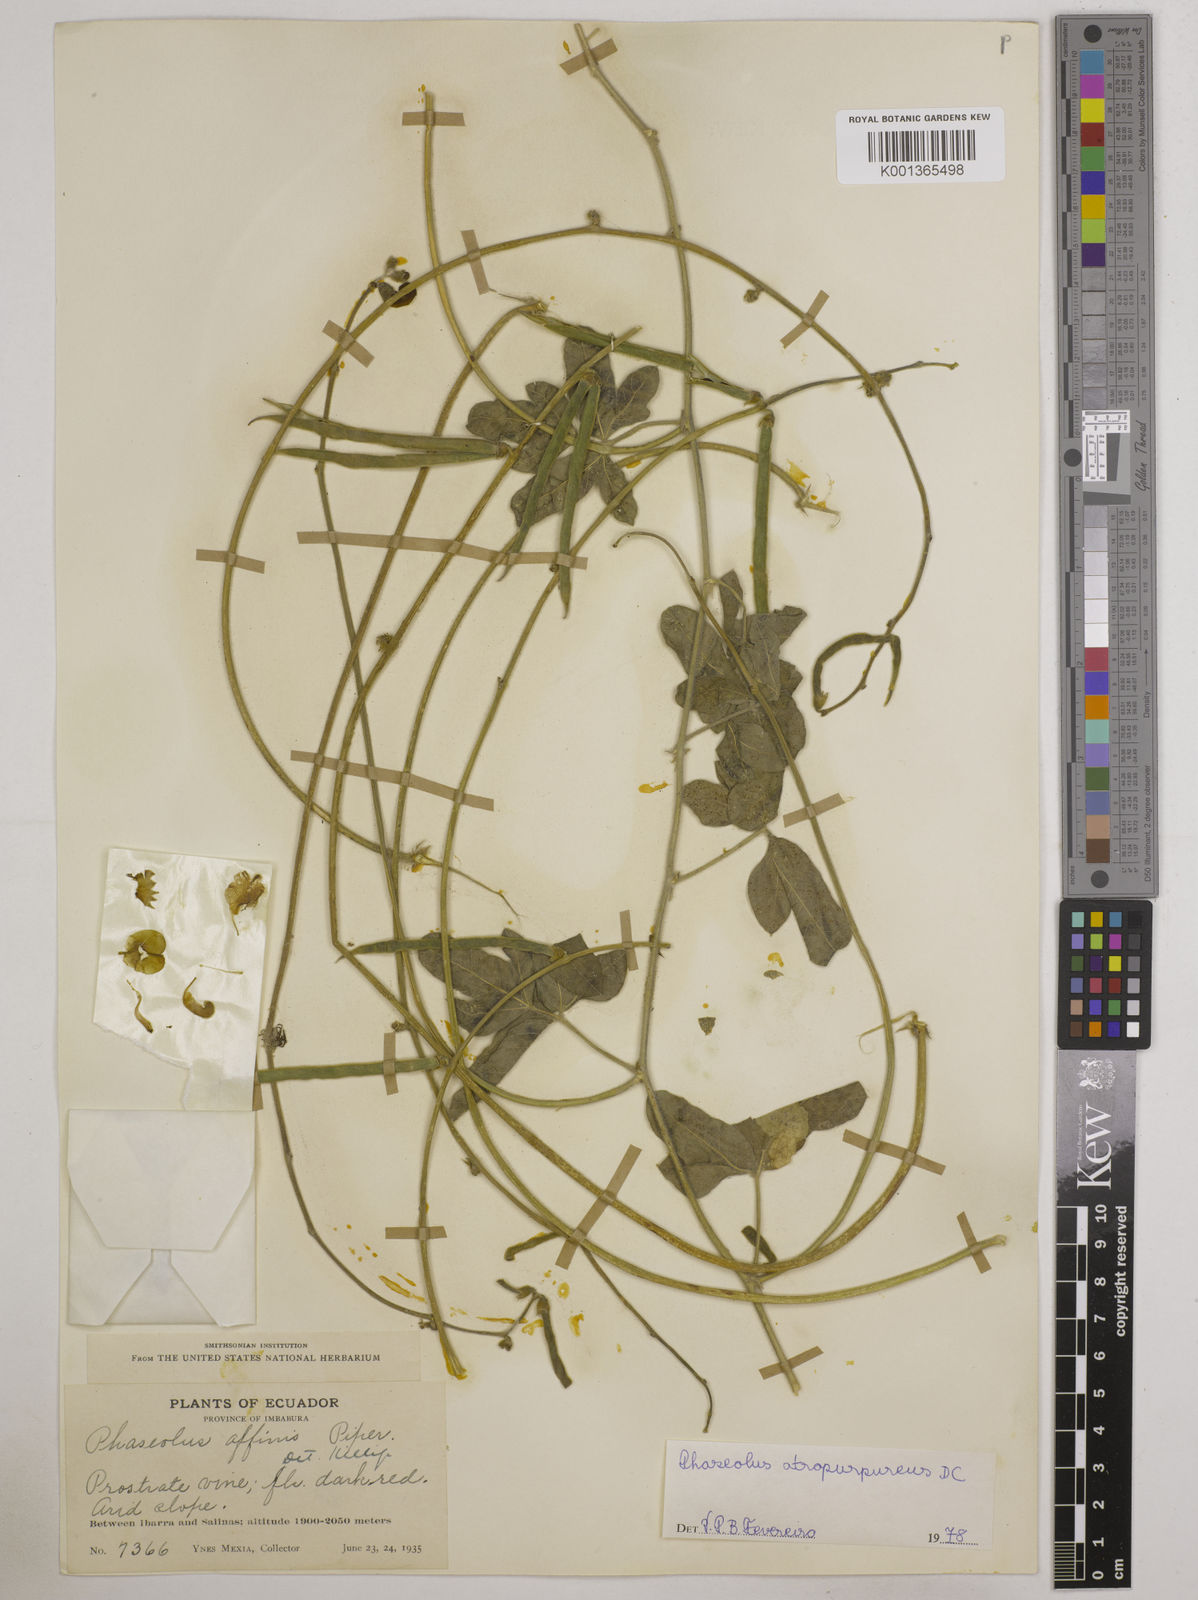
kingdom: Plantae
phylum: Tracheophyta
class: Magnoliopsida
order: Fabales
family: Fabaceae
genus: Macroptilium
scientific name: Macroptilium atropurpureum
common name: Purple bushbean
